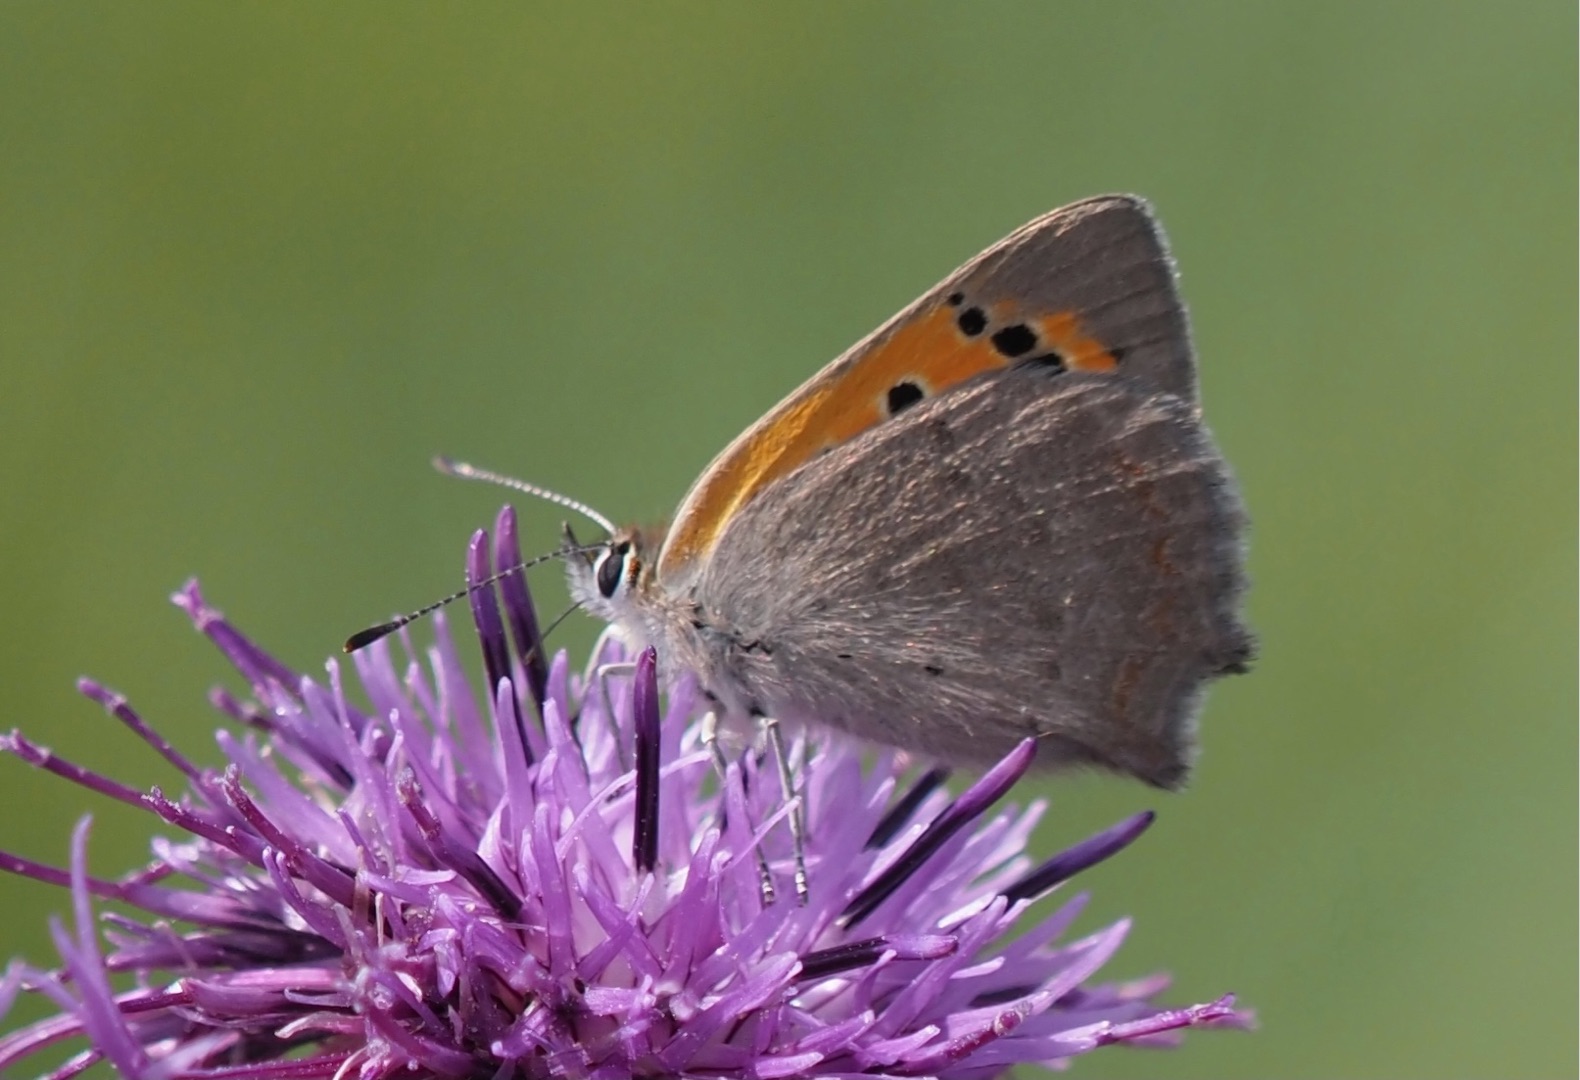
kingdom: Animalia
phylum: Arthropoda
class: Insecta
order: Lepidoptera
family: Lycaenidae
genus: Lycaena
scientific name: Lycaena phlaeas
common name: Lille ildfugl
